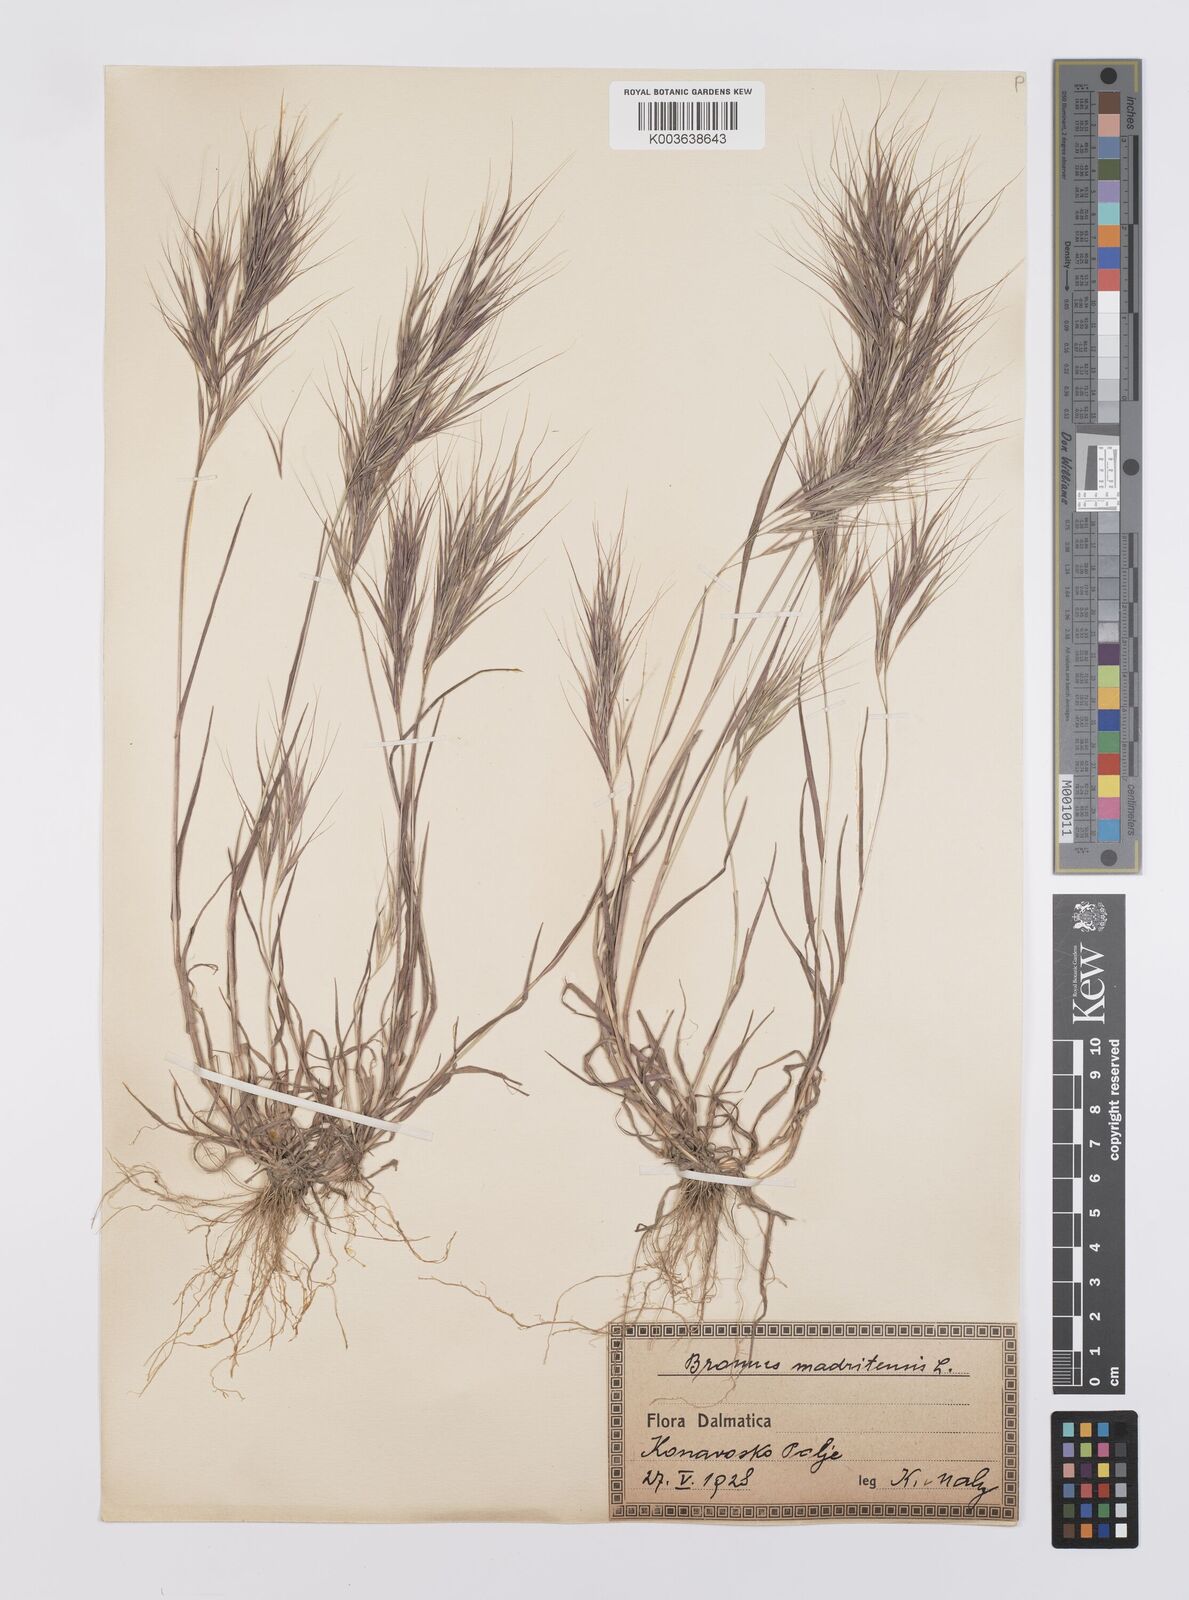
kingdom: Plantae
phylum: Tracheophyta
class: Liliopsida
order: Poales
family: Poaceae
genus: Bromus
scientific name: Bromus madritensis
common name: Compact brome
